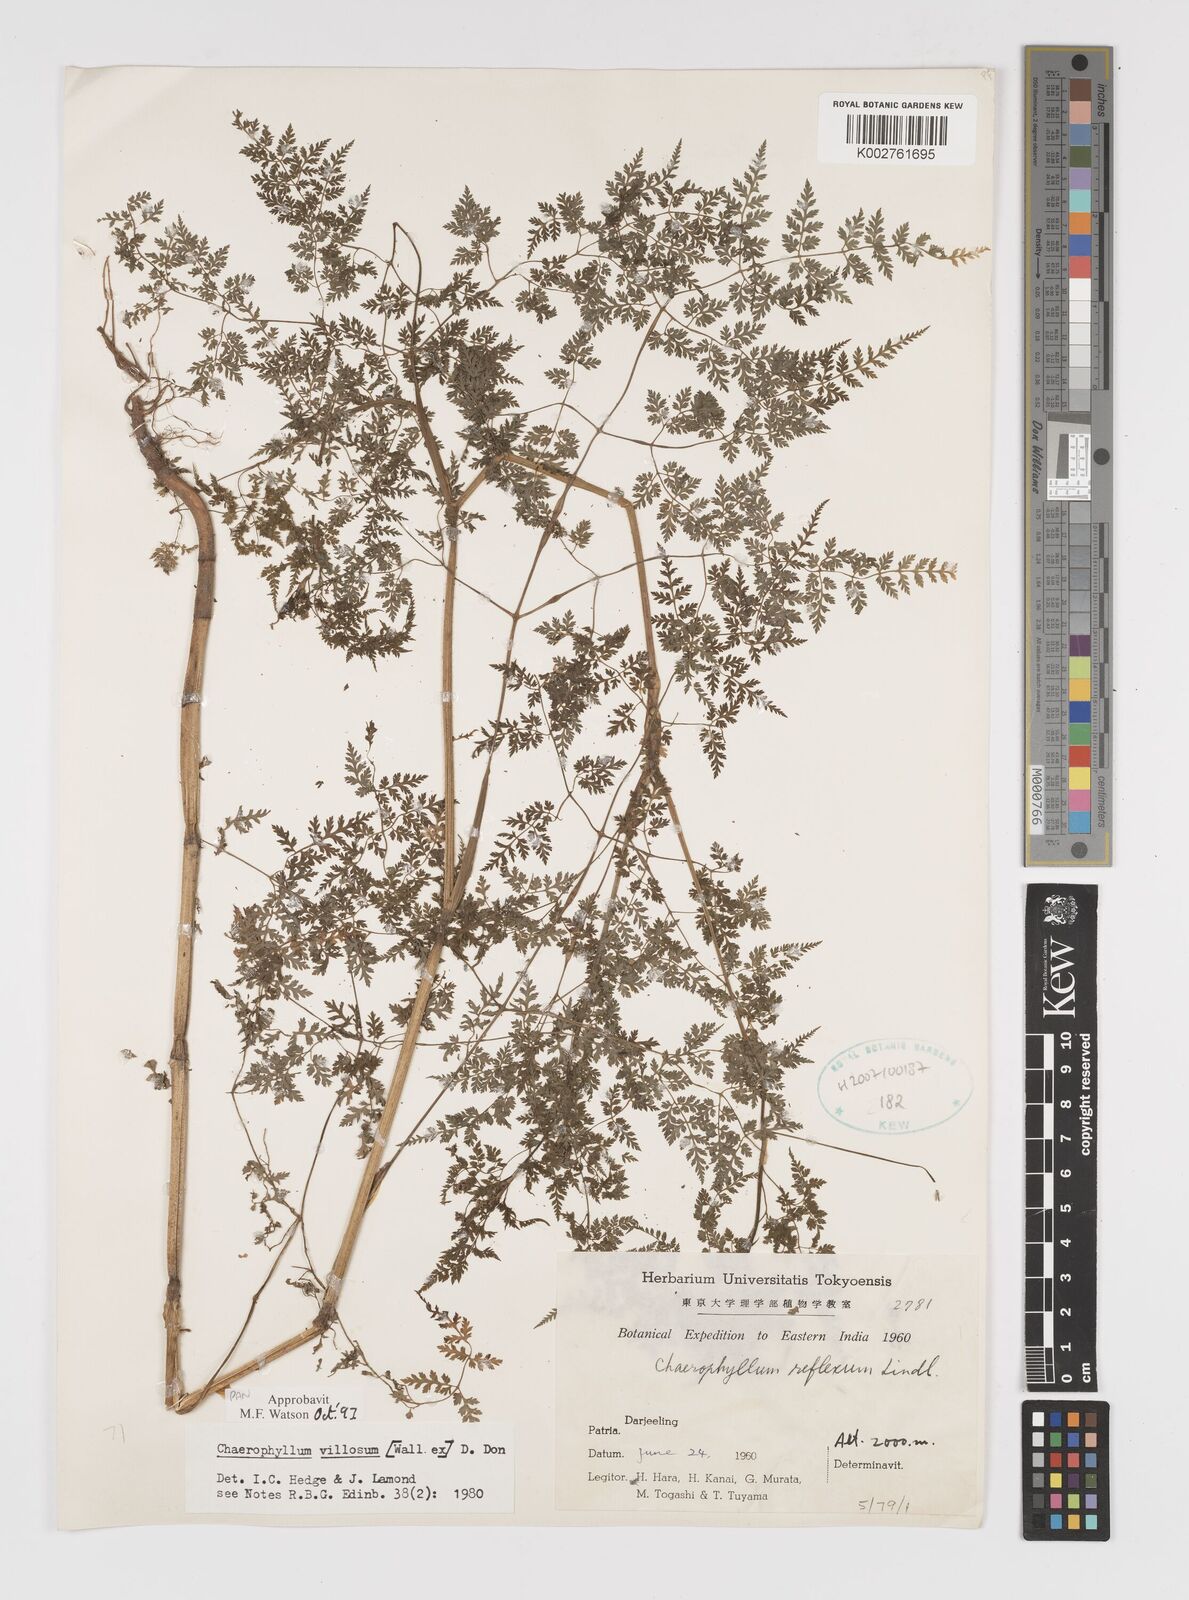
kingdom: Plantae
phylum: Tracheophyta
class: Magnoliopsida
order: Apiales
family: Apiaceae
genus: Chaerophyllum
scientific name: Chaerophyllum villosum
